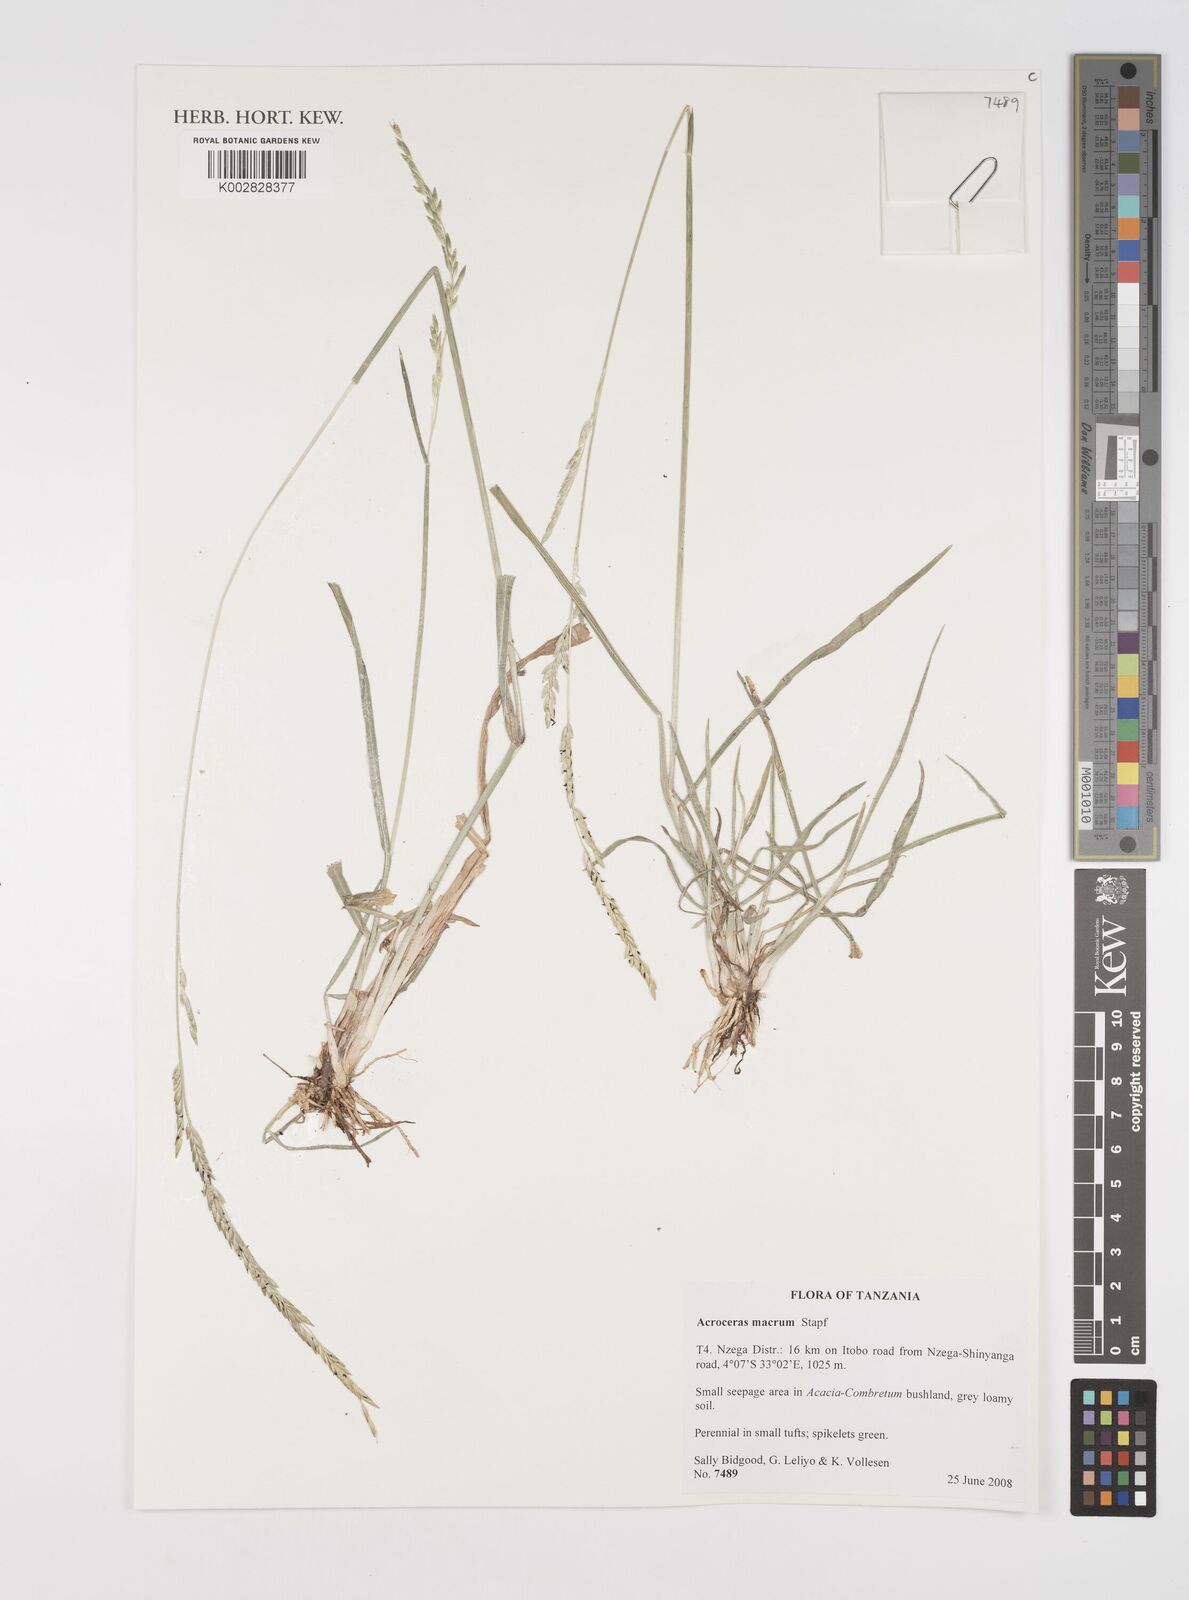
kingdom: Plantae
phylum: Tracheophyta
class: Liliopsida
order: Poales
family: Poaceae
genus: Acroceras
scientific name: Acroceras macrum
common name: Nyl grass
